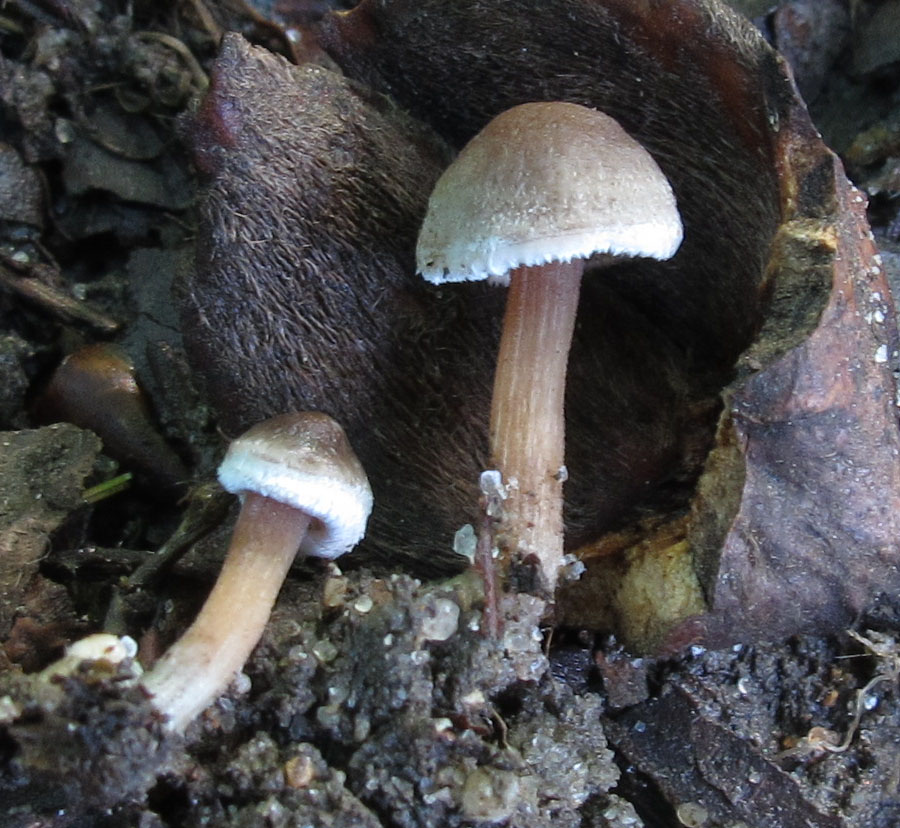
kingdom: Fungi
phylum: Basidiomycota
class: Agaricomycetes
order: Agaricales
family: Inocybaceae
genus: Inocybe
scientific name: Inocybe petiginosa
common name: liden trævlhat
